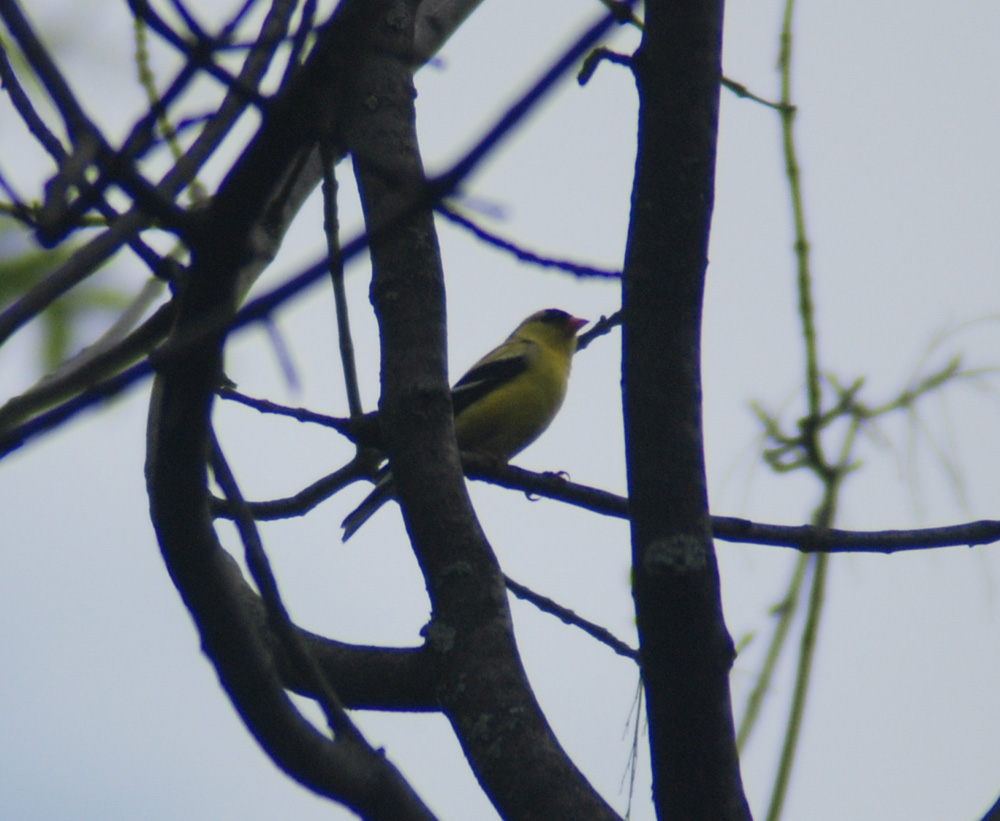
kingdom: Animalia
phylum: Chordata
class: Aves
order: Passeriformes
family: Fringillidae
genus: Spinus
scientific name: Spinus tristis
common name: American goldfinch
